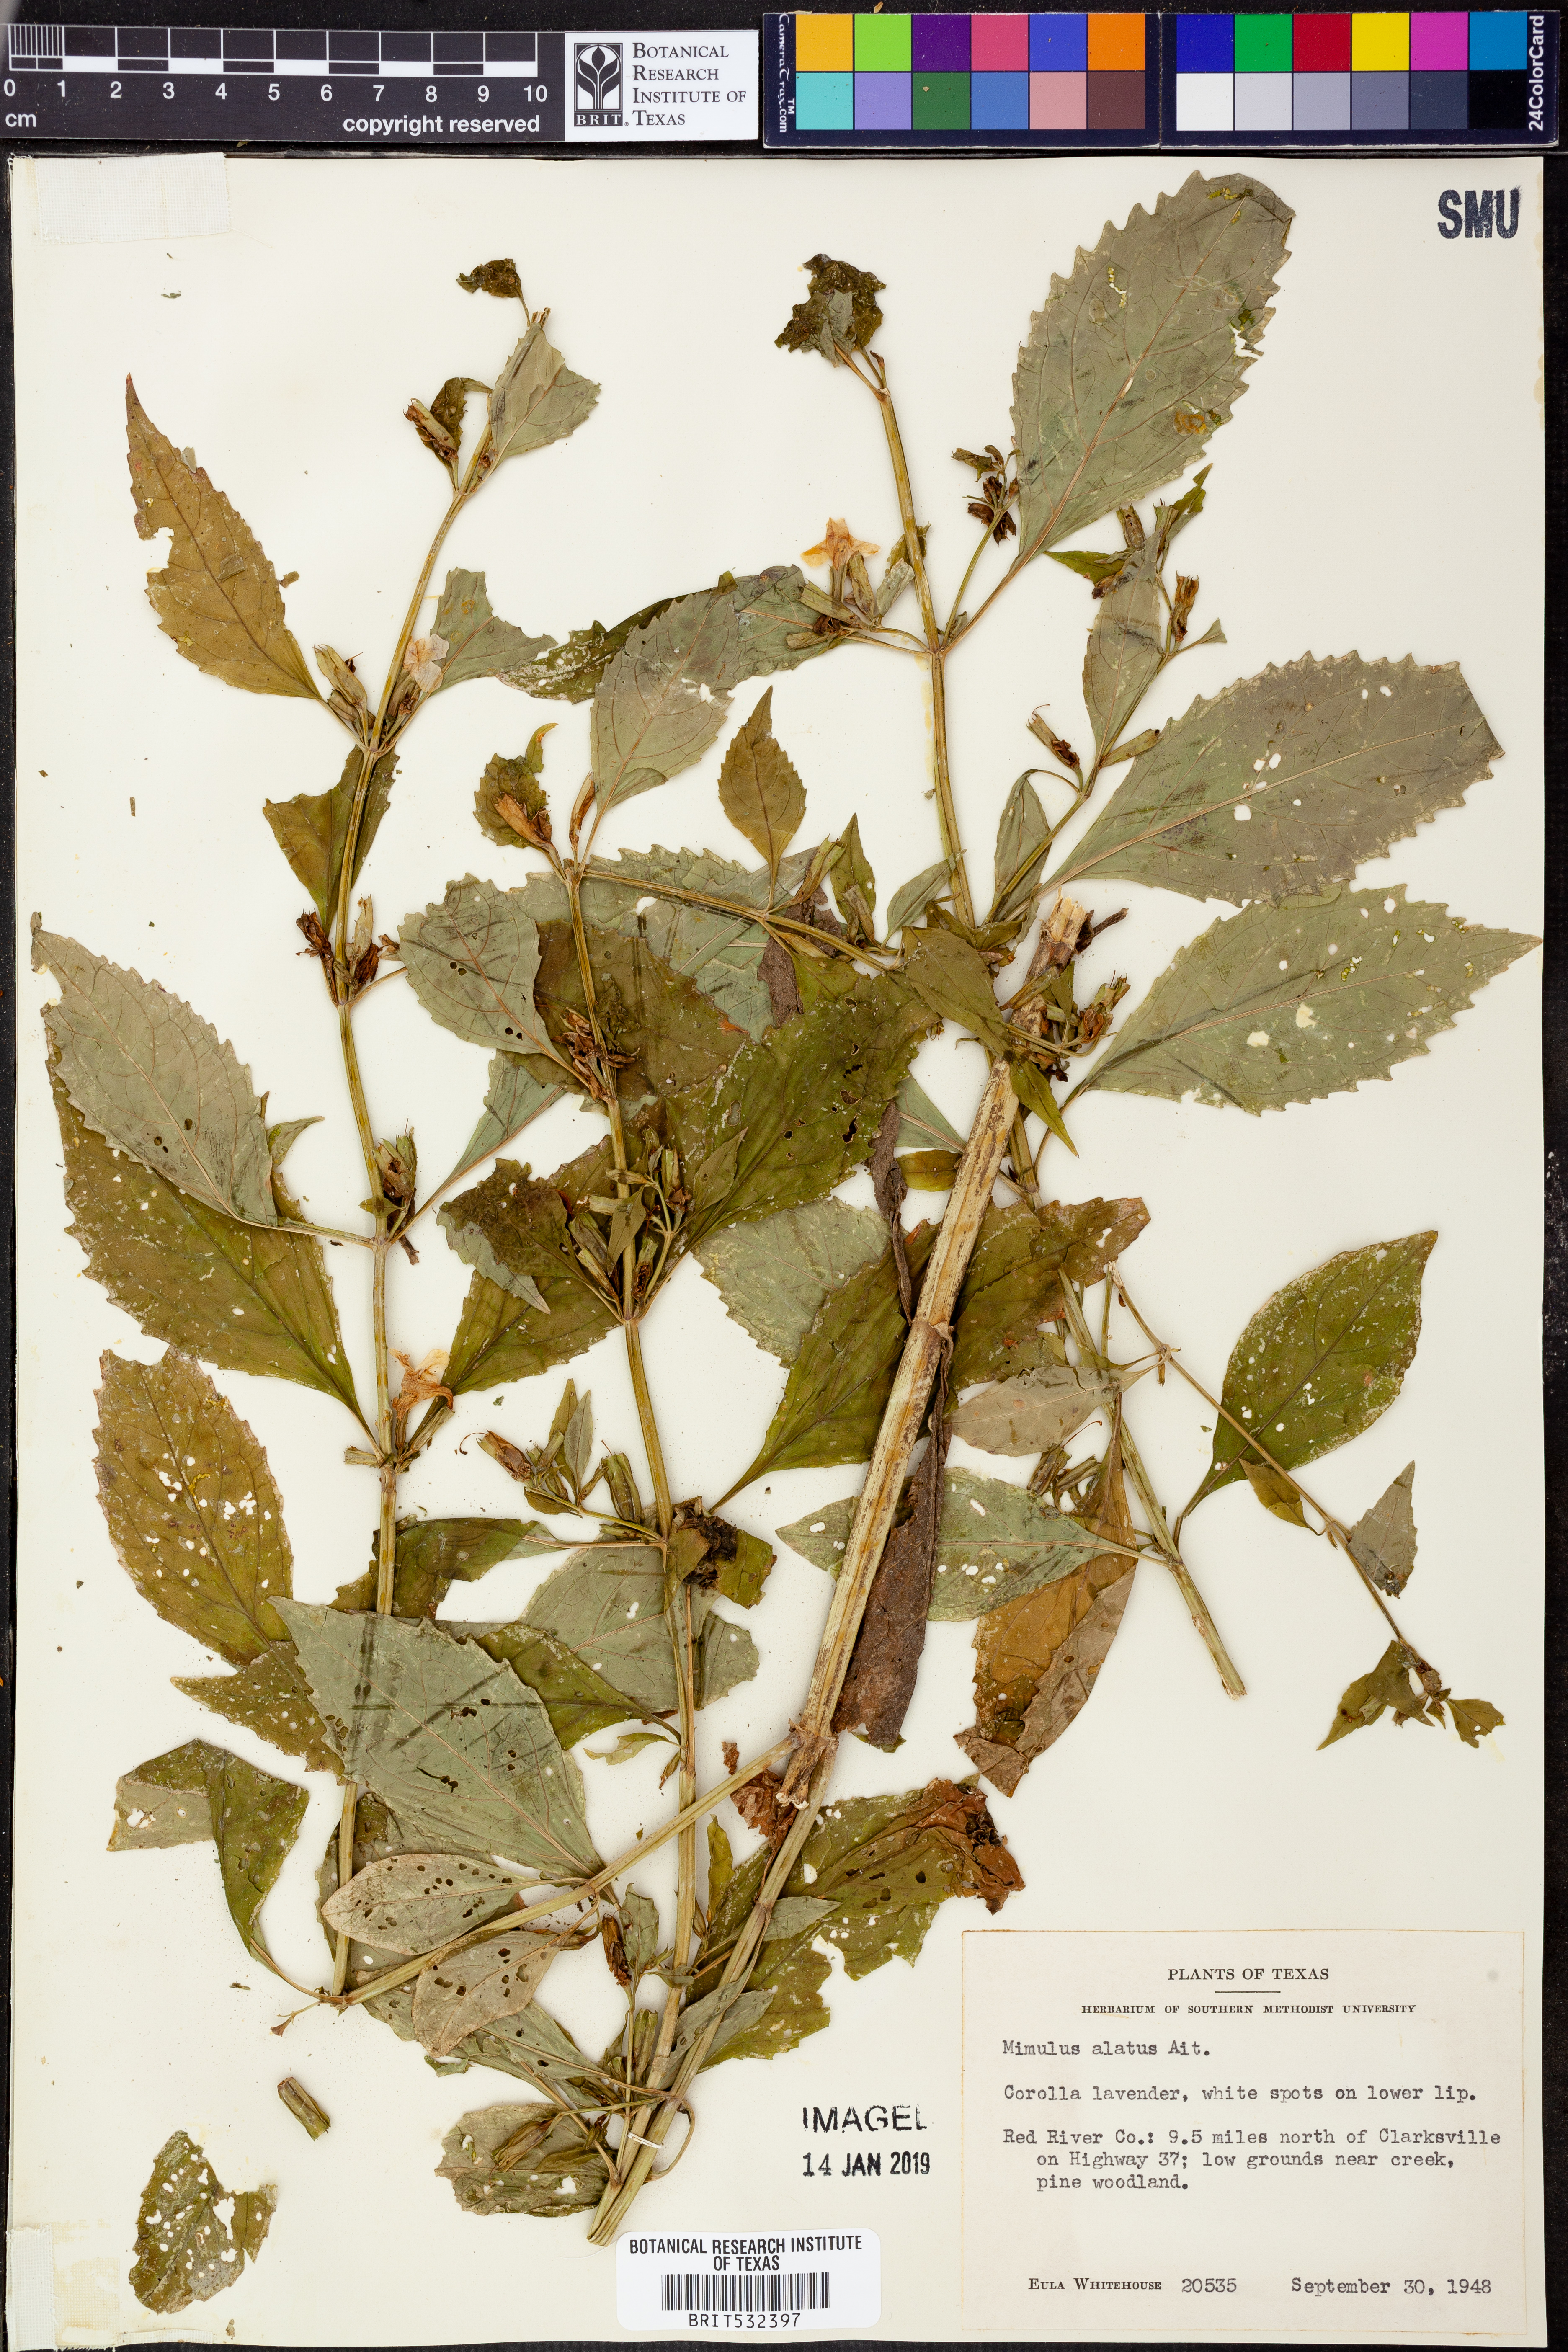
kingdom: Plantae
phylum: Tracheophyta
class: Magnoliopsida
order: Lamiales
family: Phrymaceae
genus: Mimulus
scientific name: Mimulus alatus
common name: Sharp-wing monkey-flower
